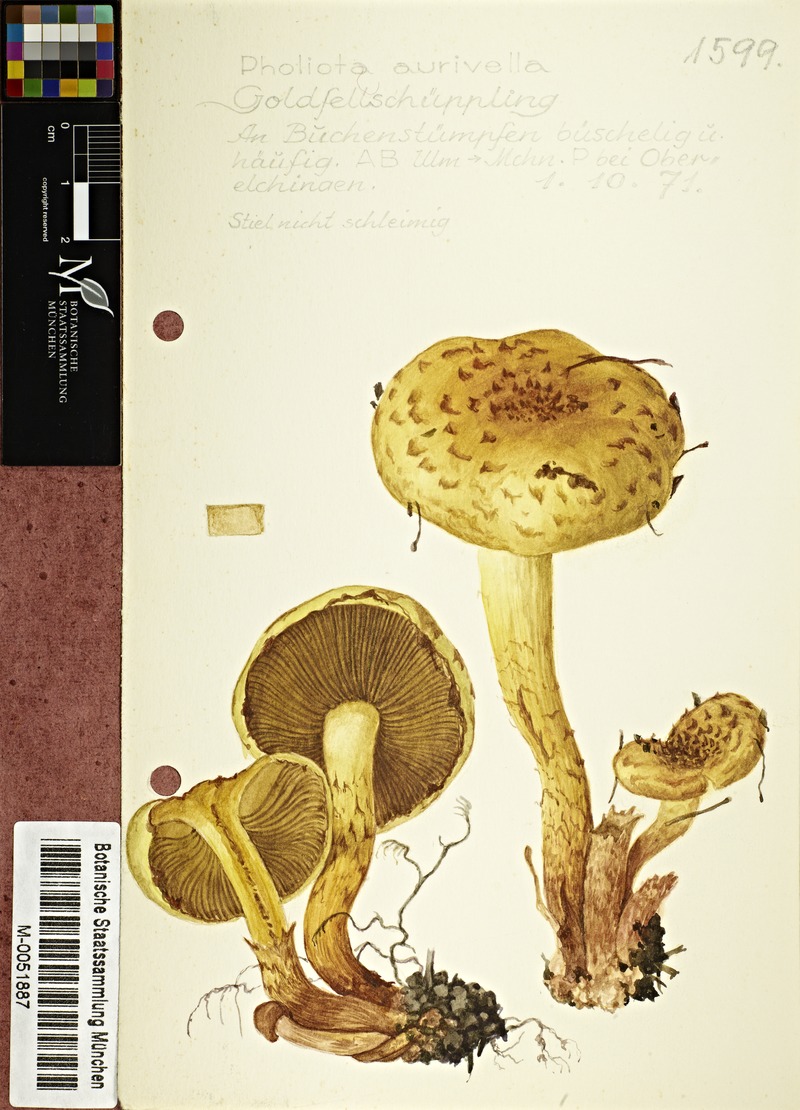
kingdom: Fungi
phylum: Basidiomycota
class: Agaricomycetes
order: Agaricales
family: Strophariaceae
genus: Pholiota
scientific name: Pholiota aurivella
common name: Golden scalycap
